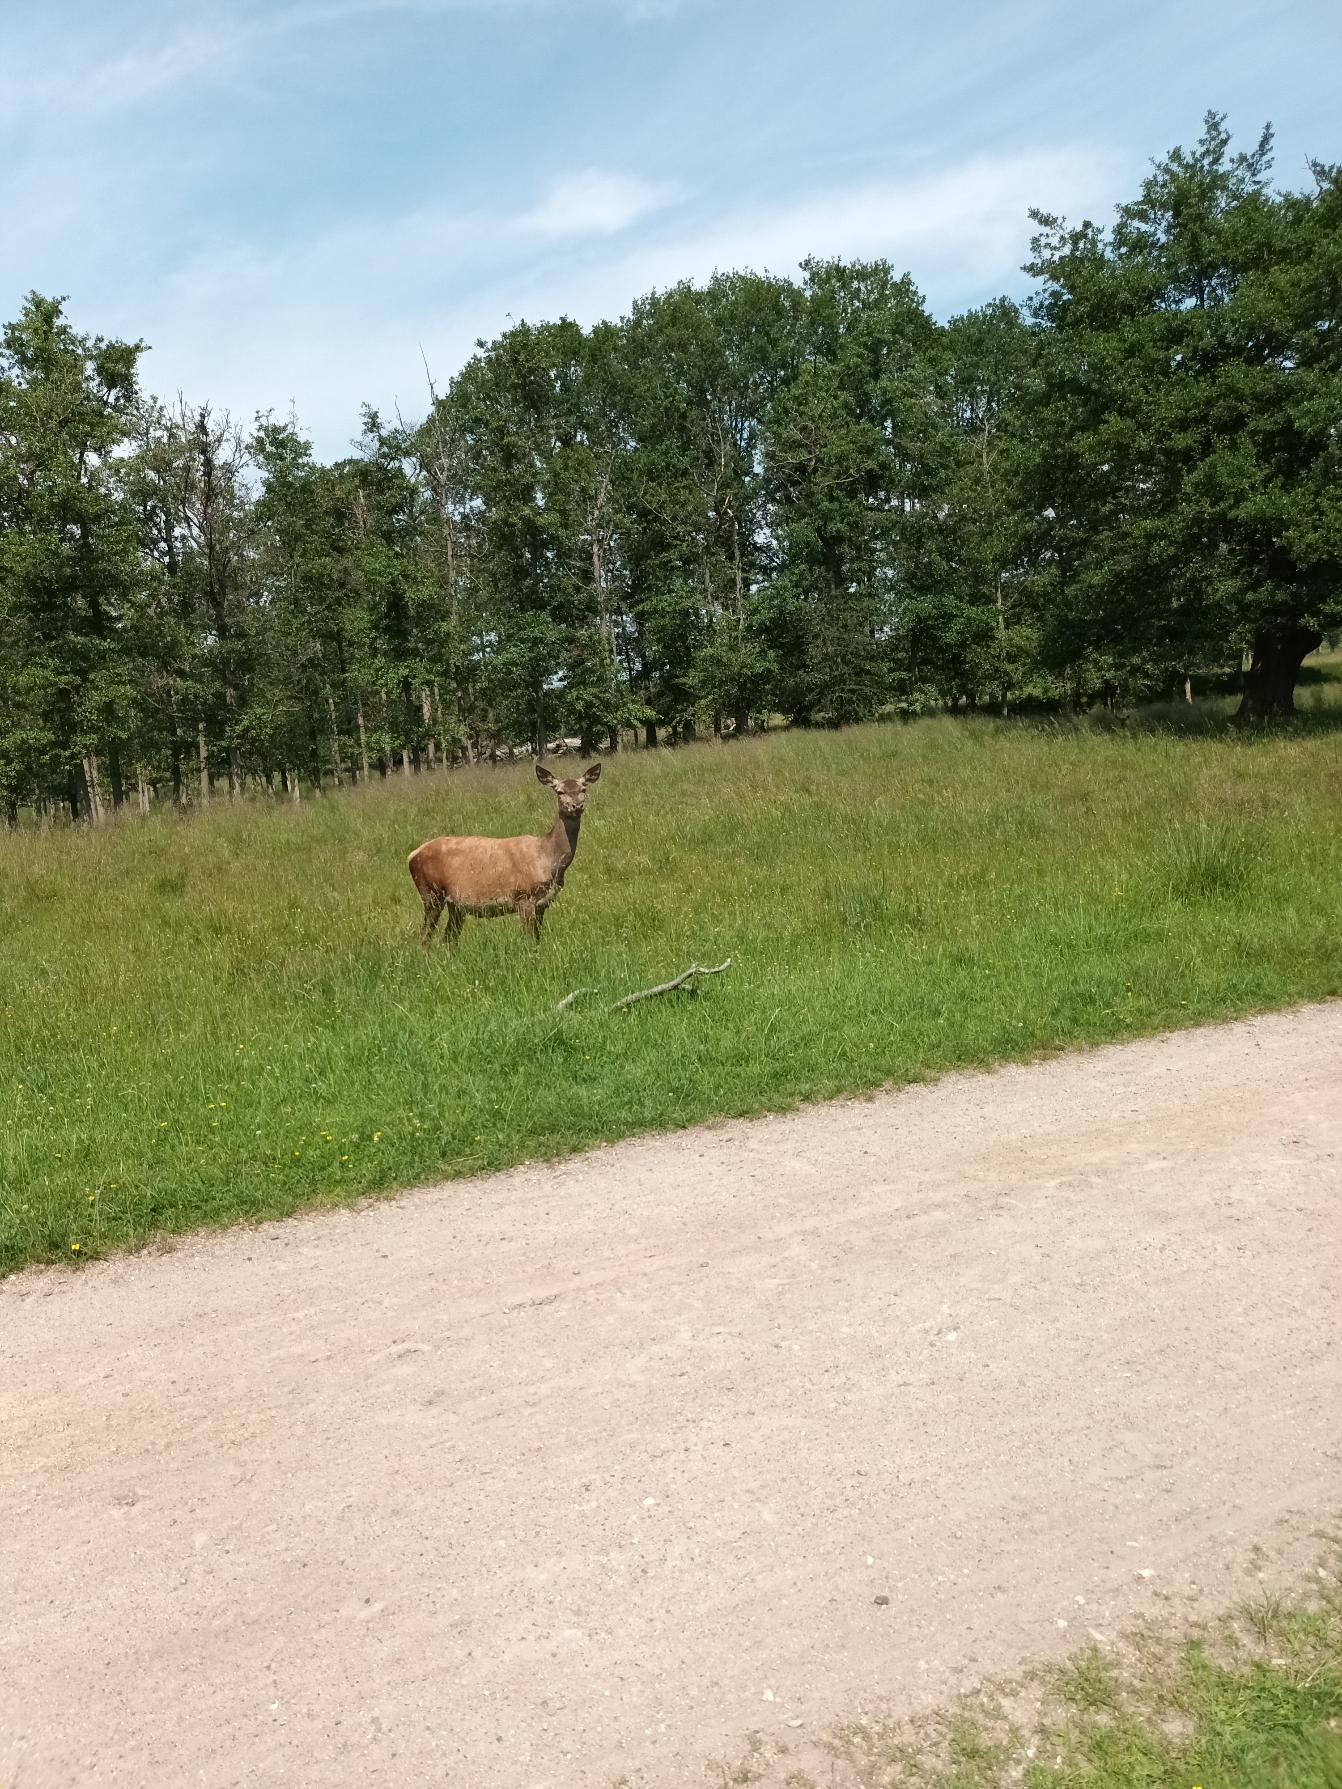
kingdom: Animalia
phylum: Chordata
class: Mammalia
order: Artiodactyla
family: Cervidae
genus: Cervus
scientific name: Cervus elaphus
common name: Krondyr
